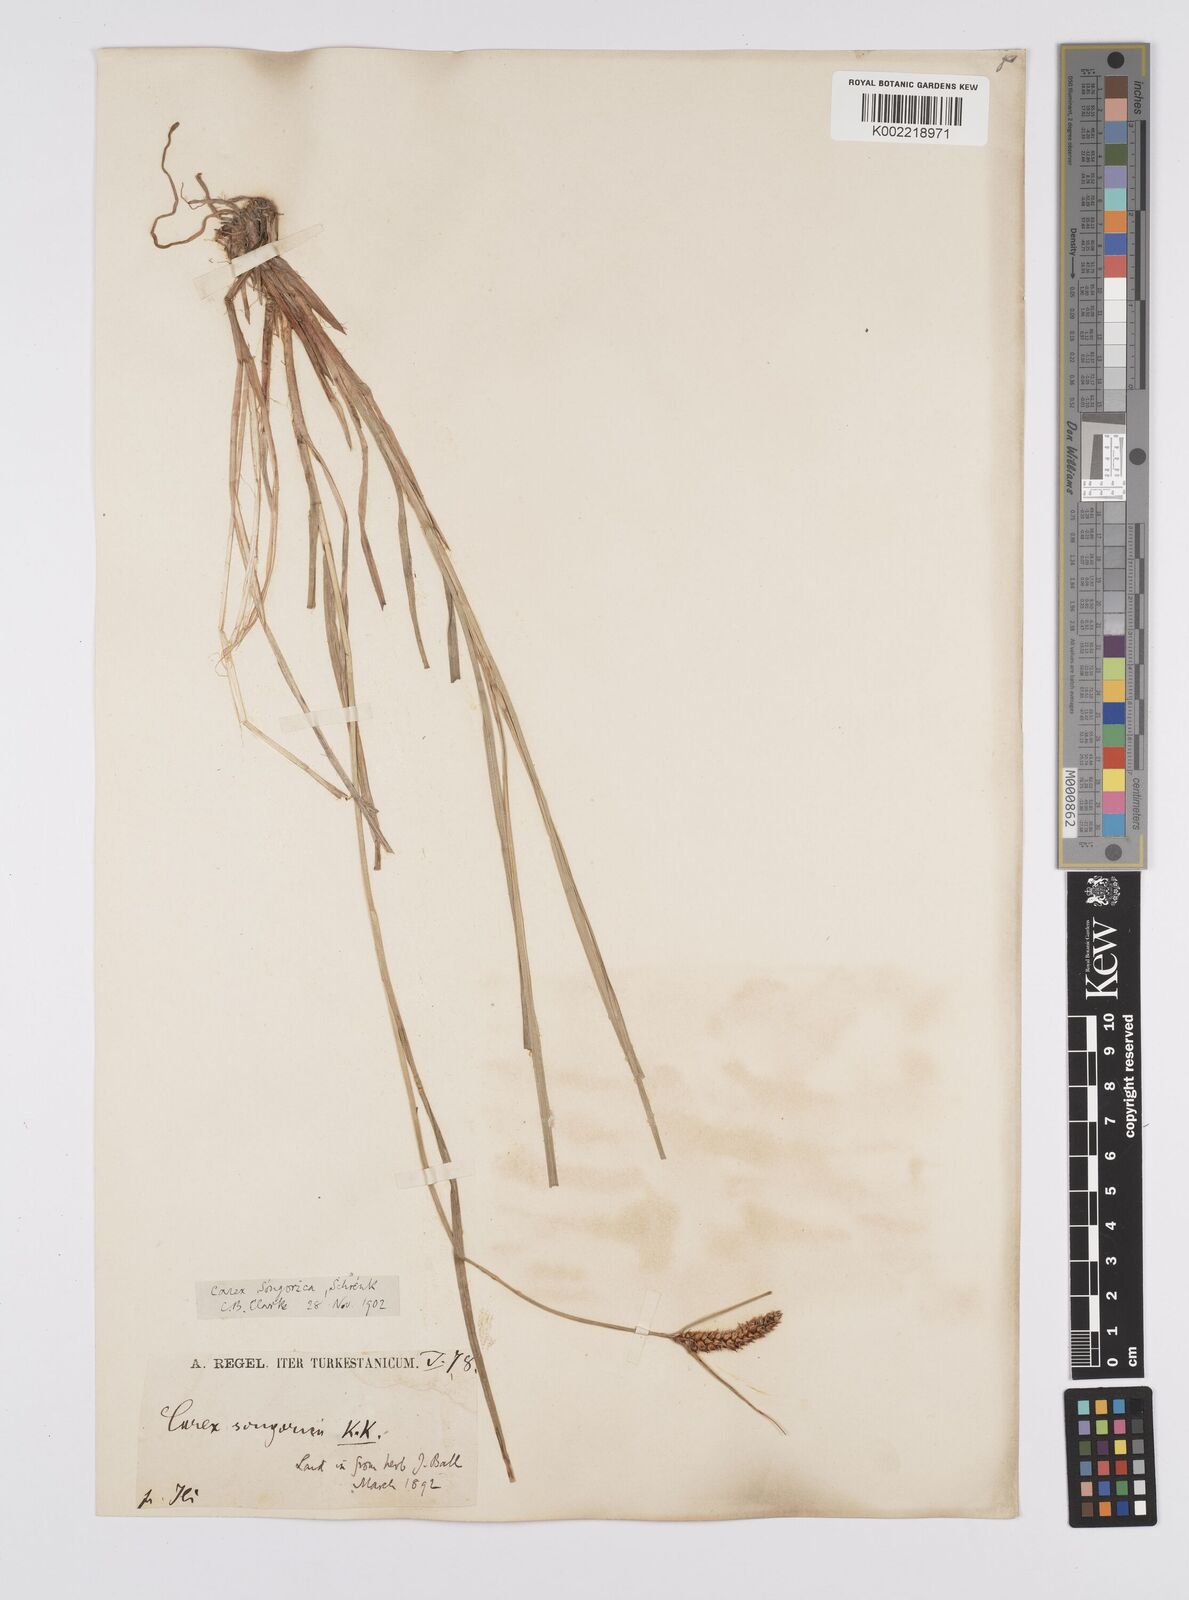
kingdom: Plantae
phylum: Tracheophyta
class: Liliopsida
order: Poales
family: Cyperaceae
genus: Carex
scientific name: Carex heterostachya
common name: Different-spike sedge
